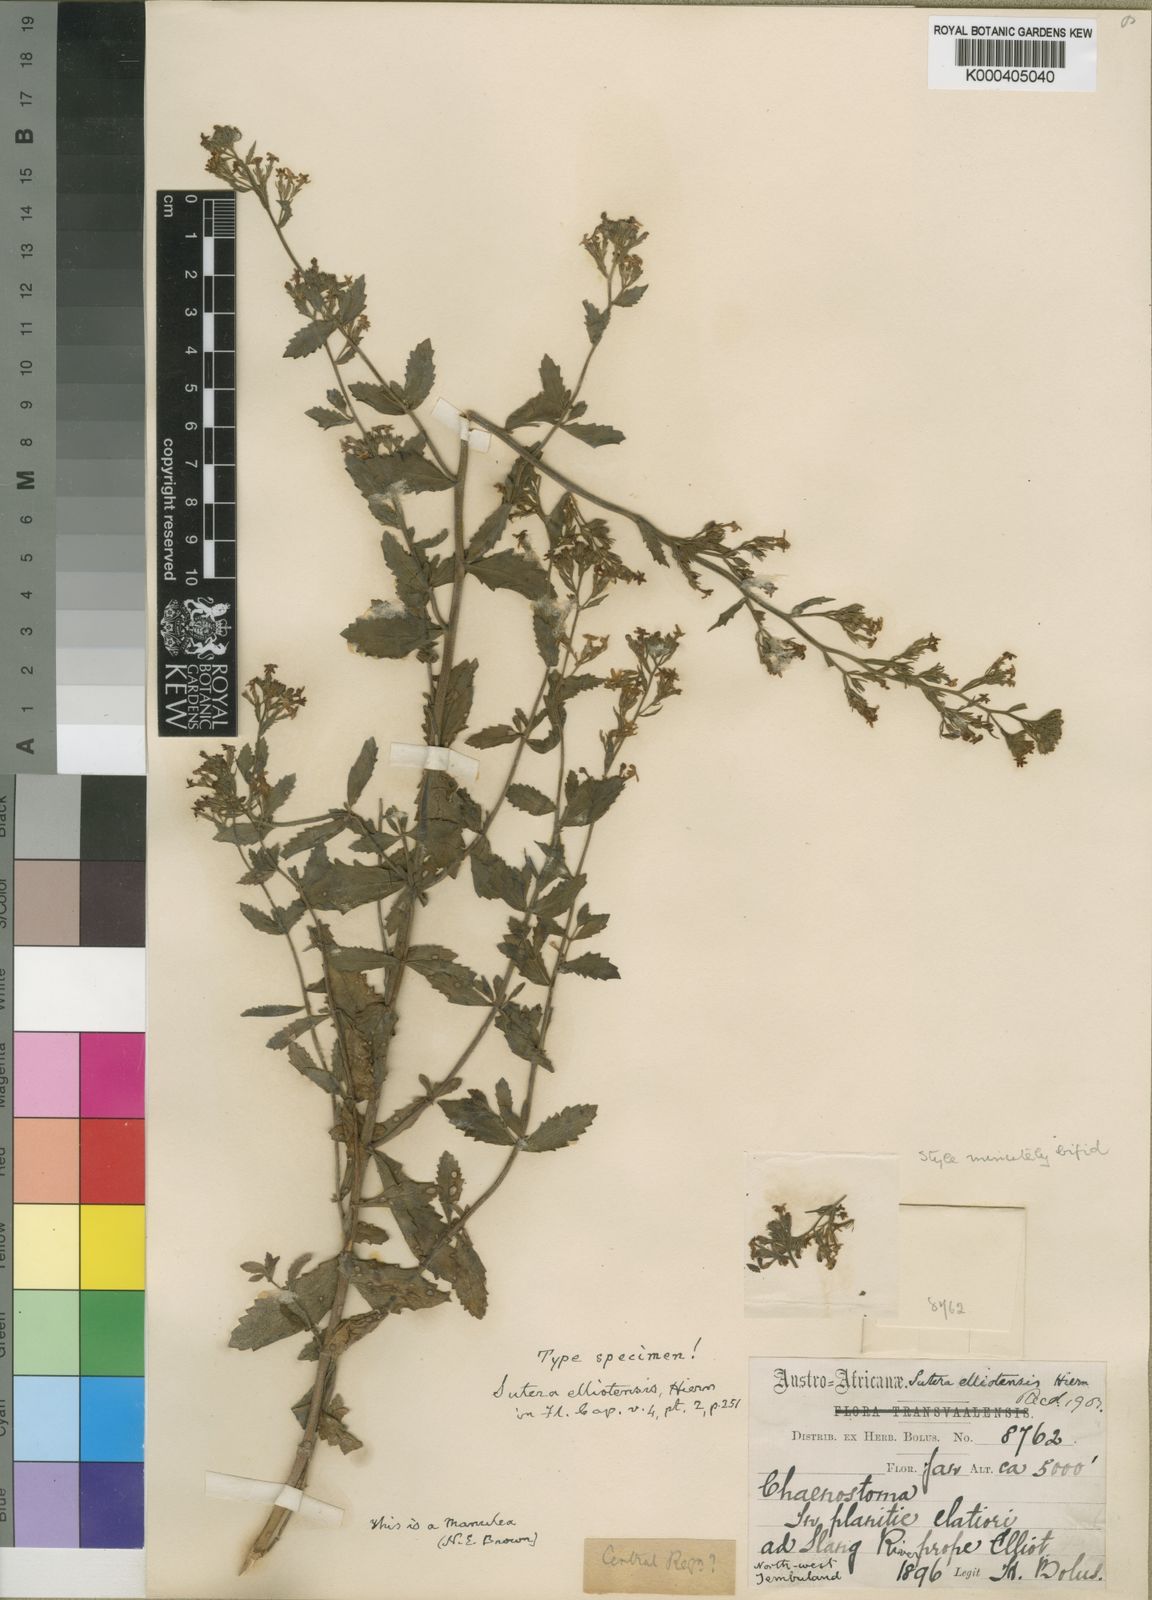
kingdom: Plantae
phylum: Tracheophyta
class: Magnoliopsida
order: Lamiales
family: Scrophulariaceae
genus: Manulea
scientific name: Manulea paniculata
